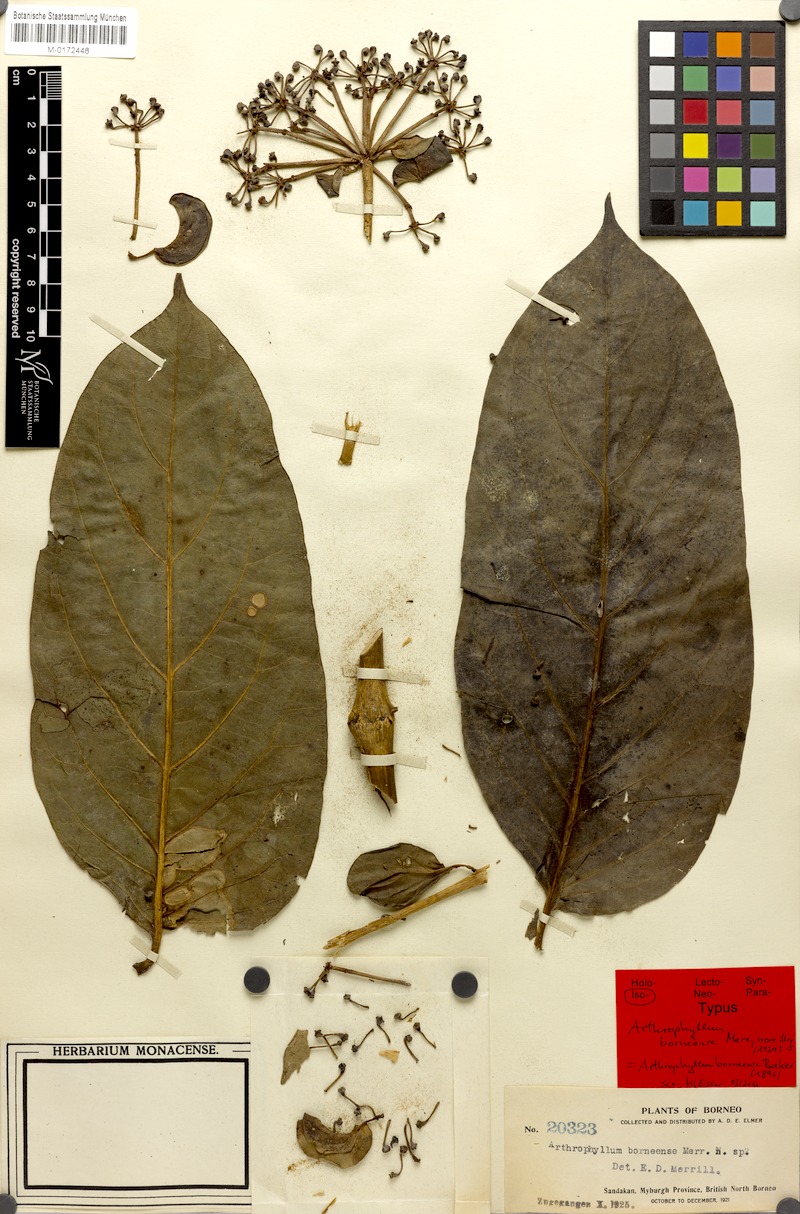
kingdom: Plantae
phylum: Tracheophyta
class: Magnoliopsida
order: Apiales
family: Araliaceae
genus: Polyscias
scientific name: Polyscias aherniana
